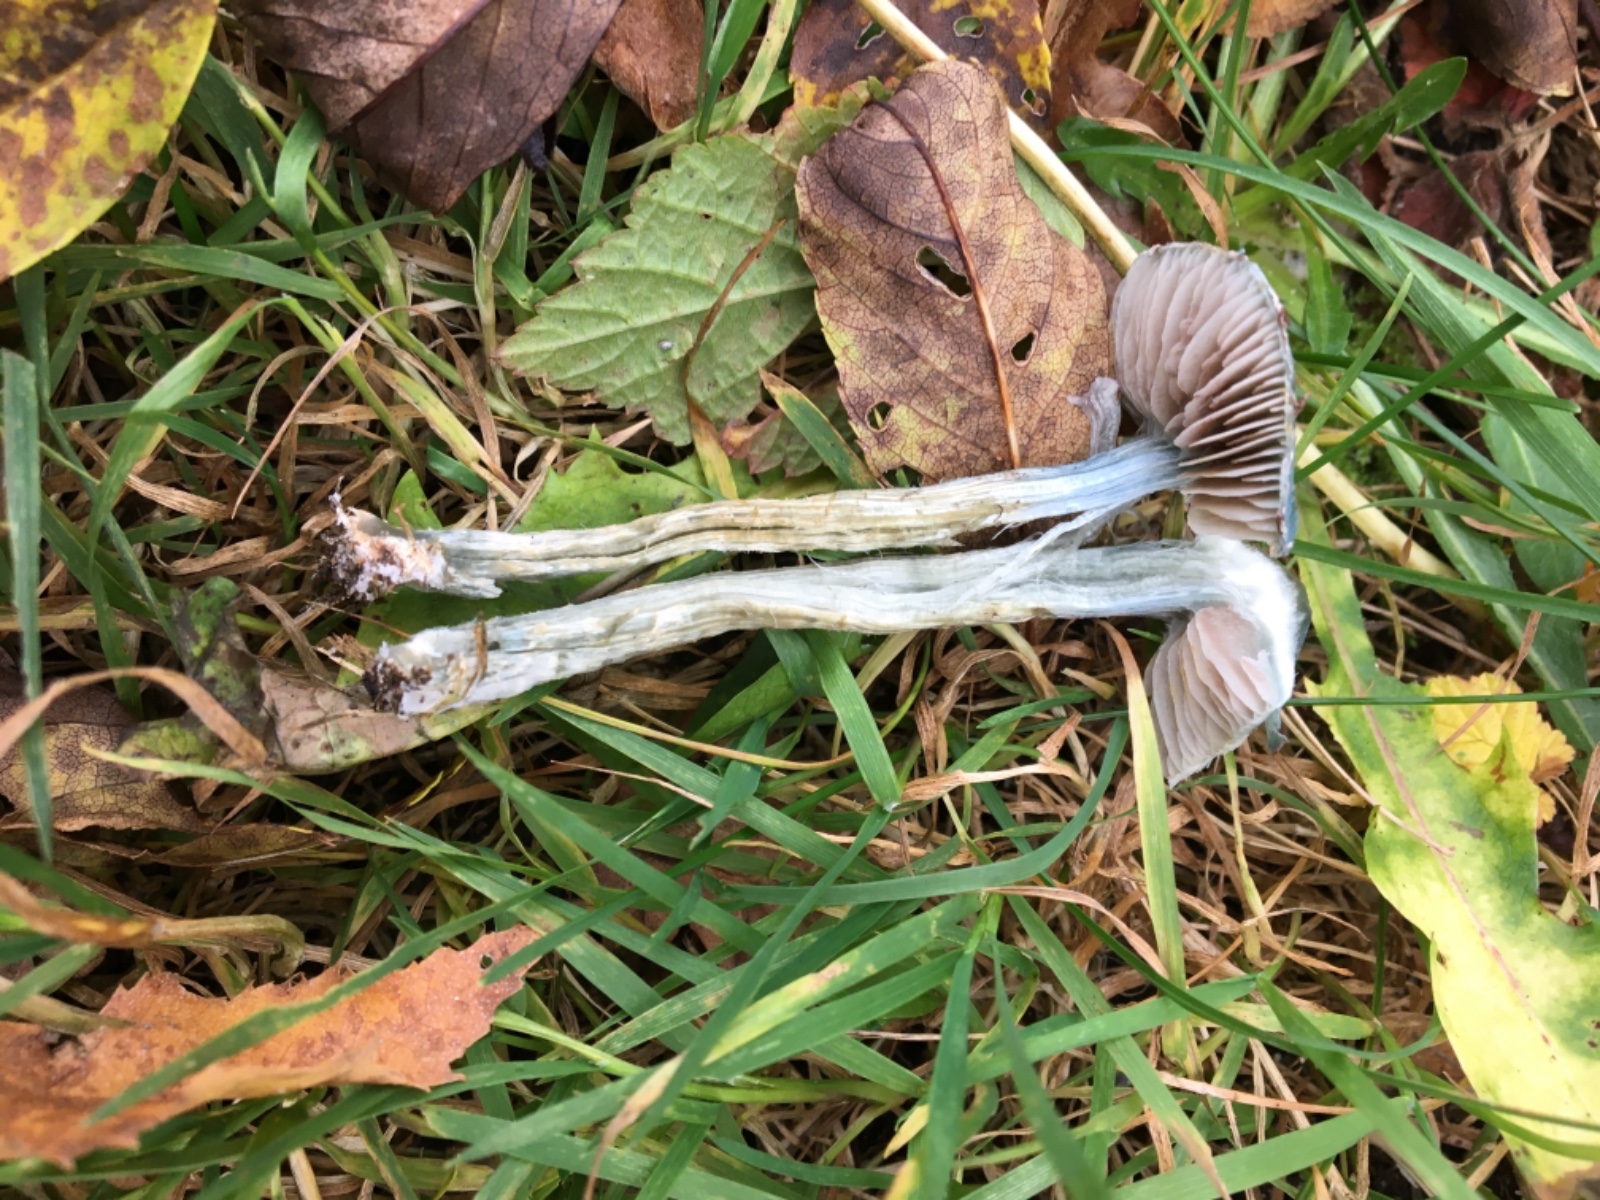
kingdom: Fungi
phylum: Basidiomycota
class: Agaricomycetes
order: Agaricales
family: Strophariaceae
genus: Stropharia
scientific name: Stropharia cyanea
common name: blågrøn bredblad
